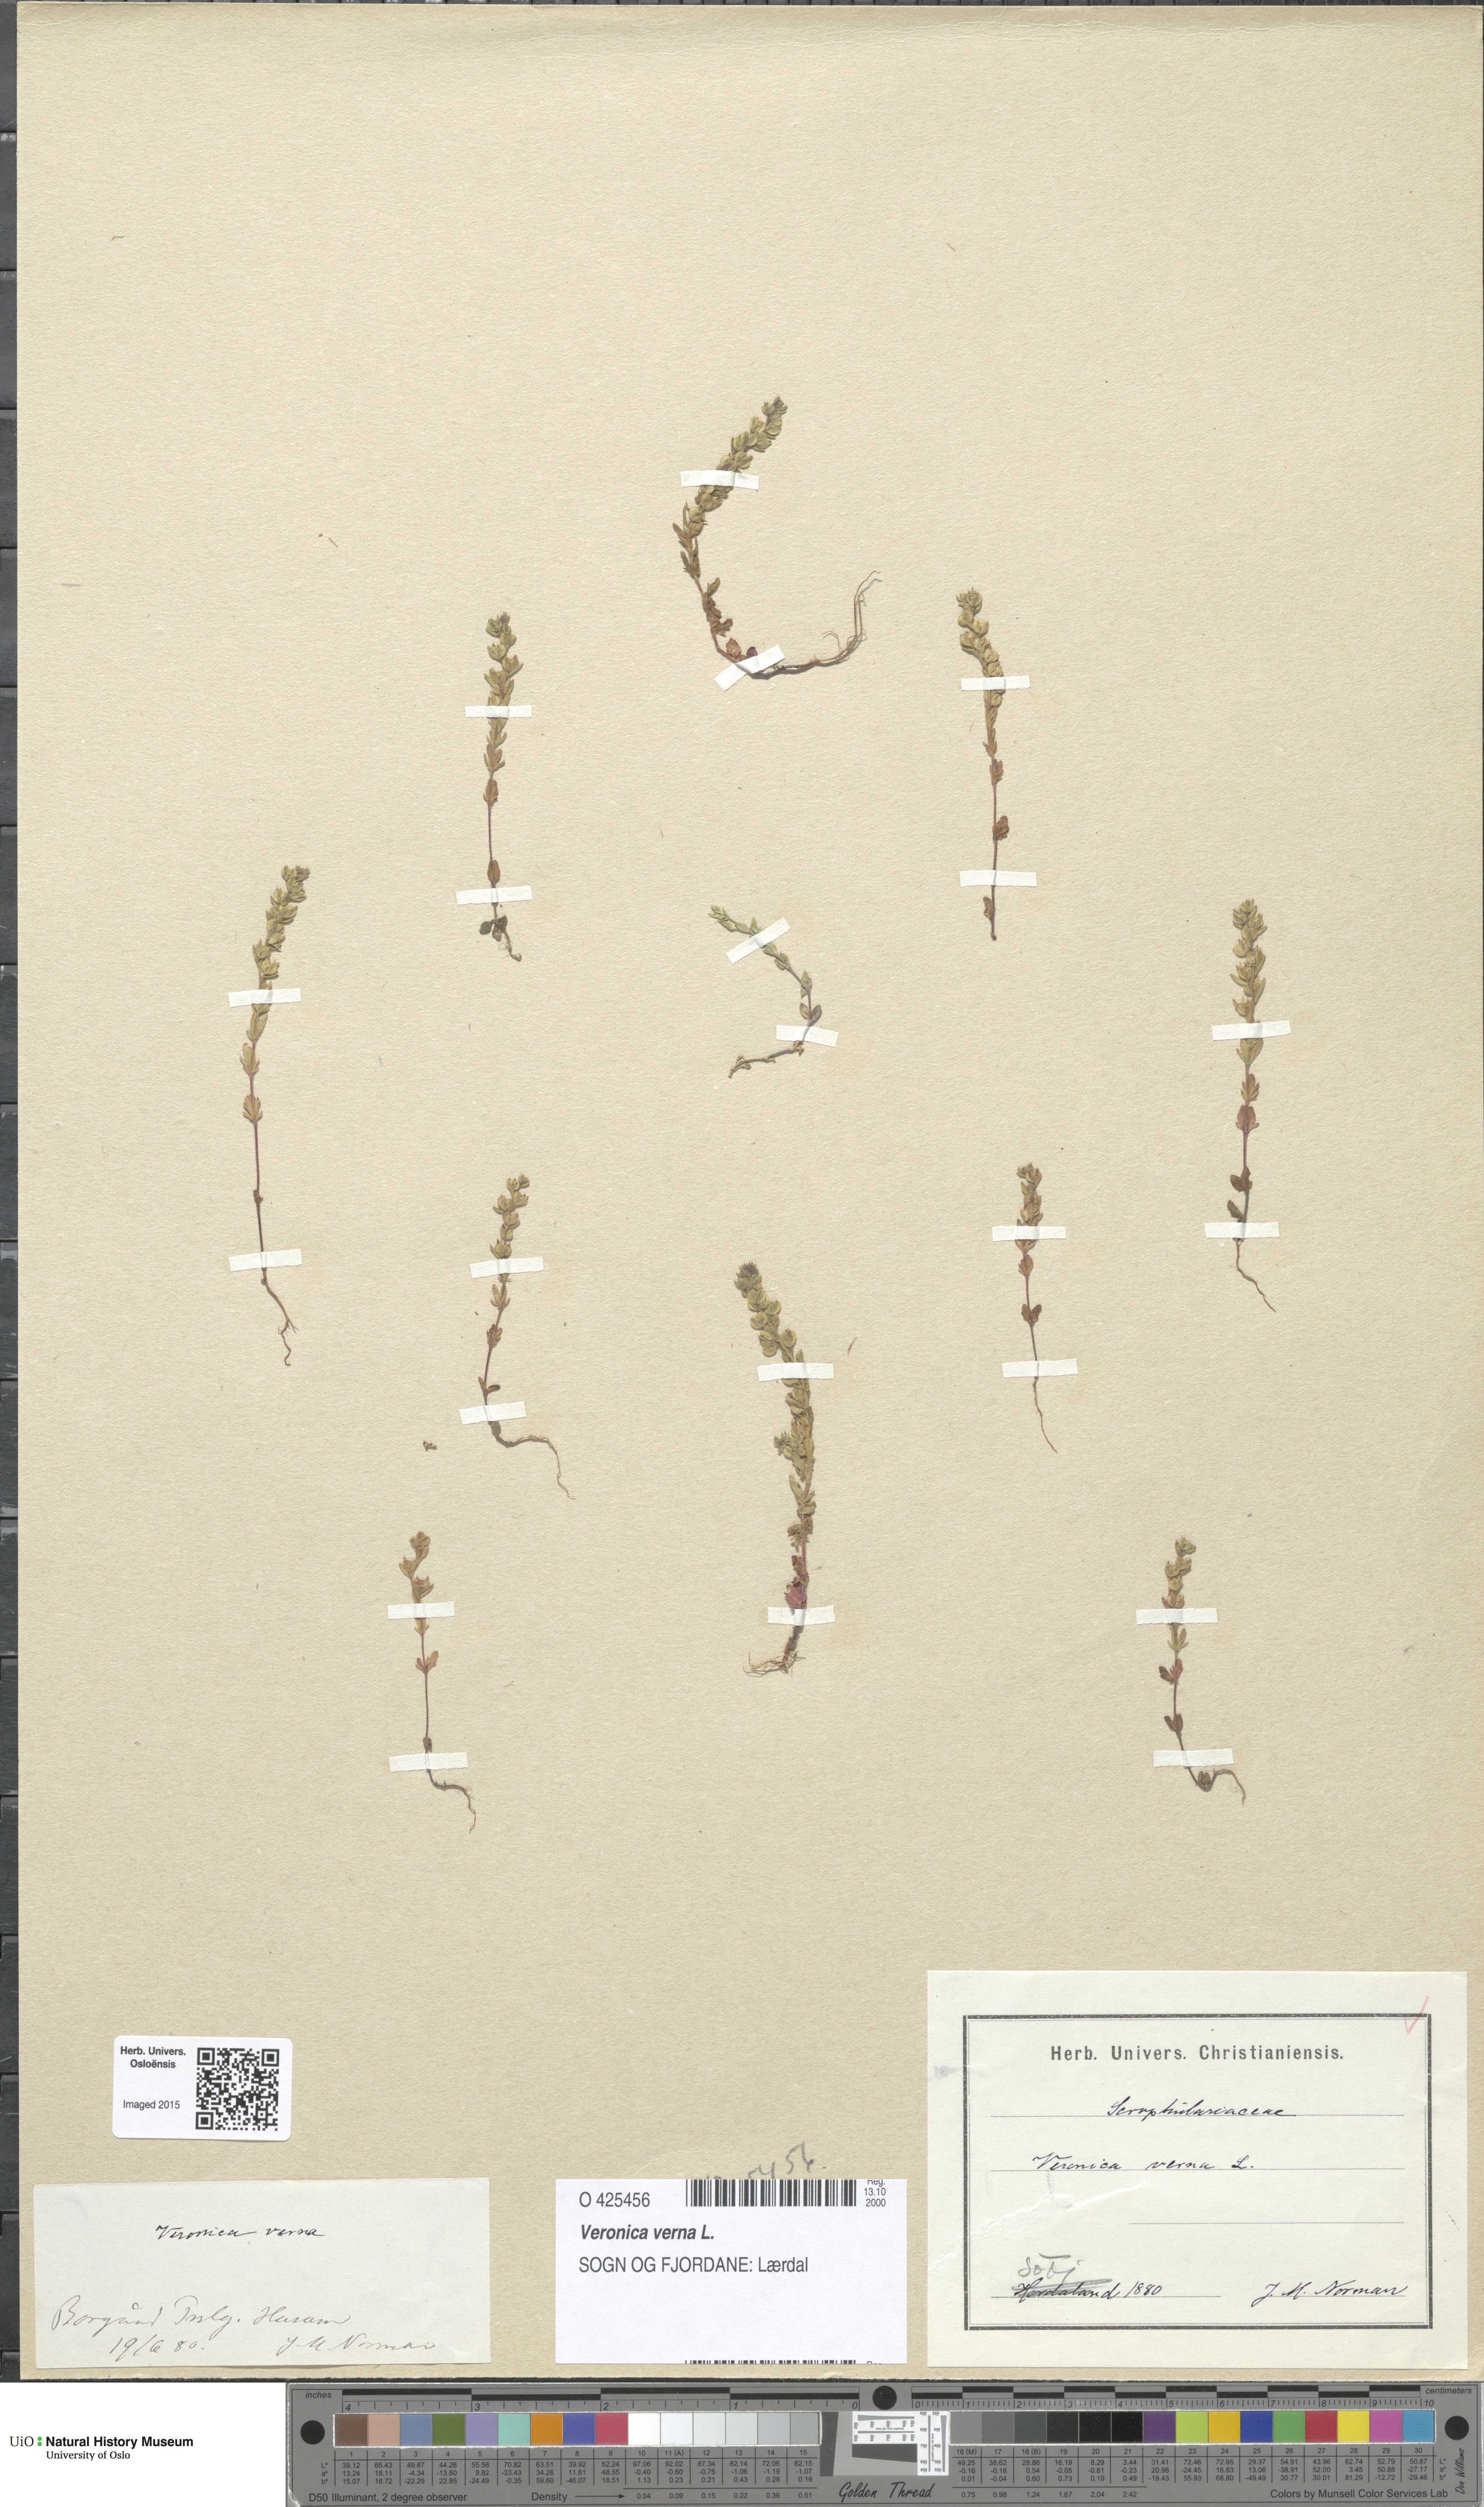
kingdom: Plantae
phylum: Tracheophyta
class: Magnoliopsida
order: Lamiales
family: Plantaginaceae
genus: Veronica
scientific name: Veronica verna
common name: Spring speedwell
